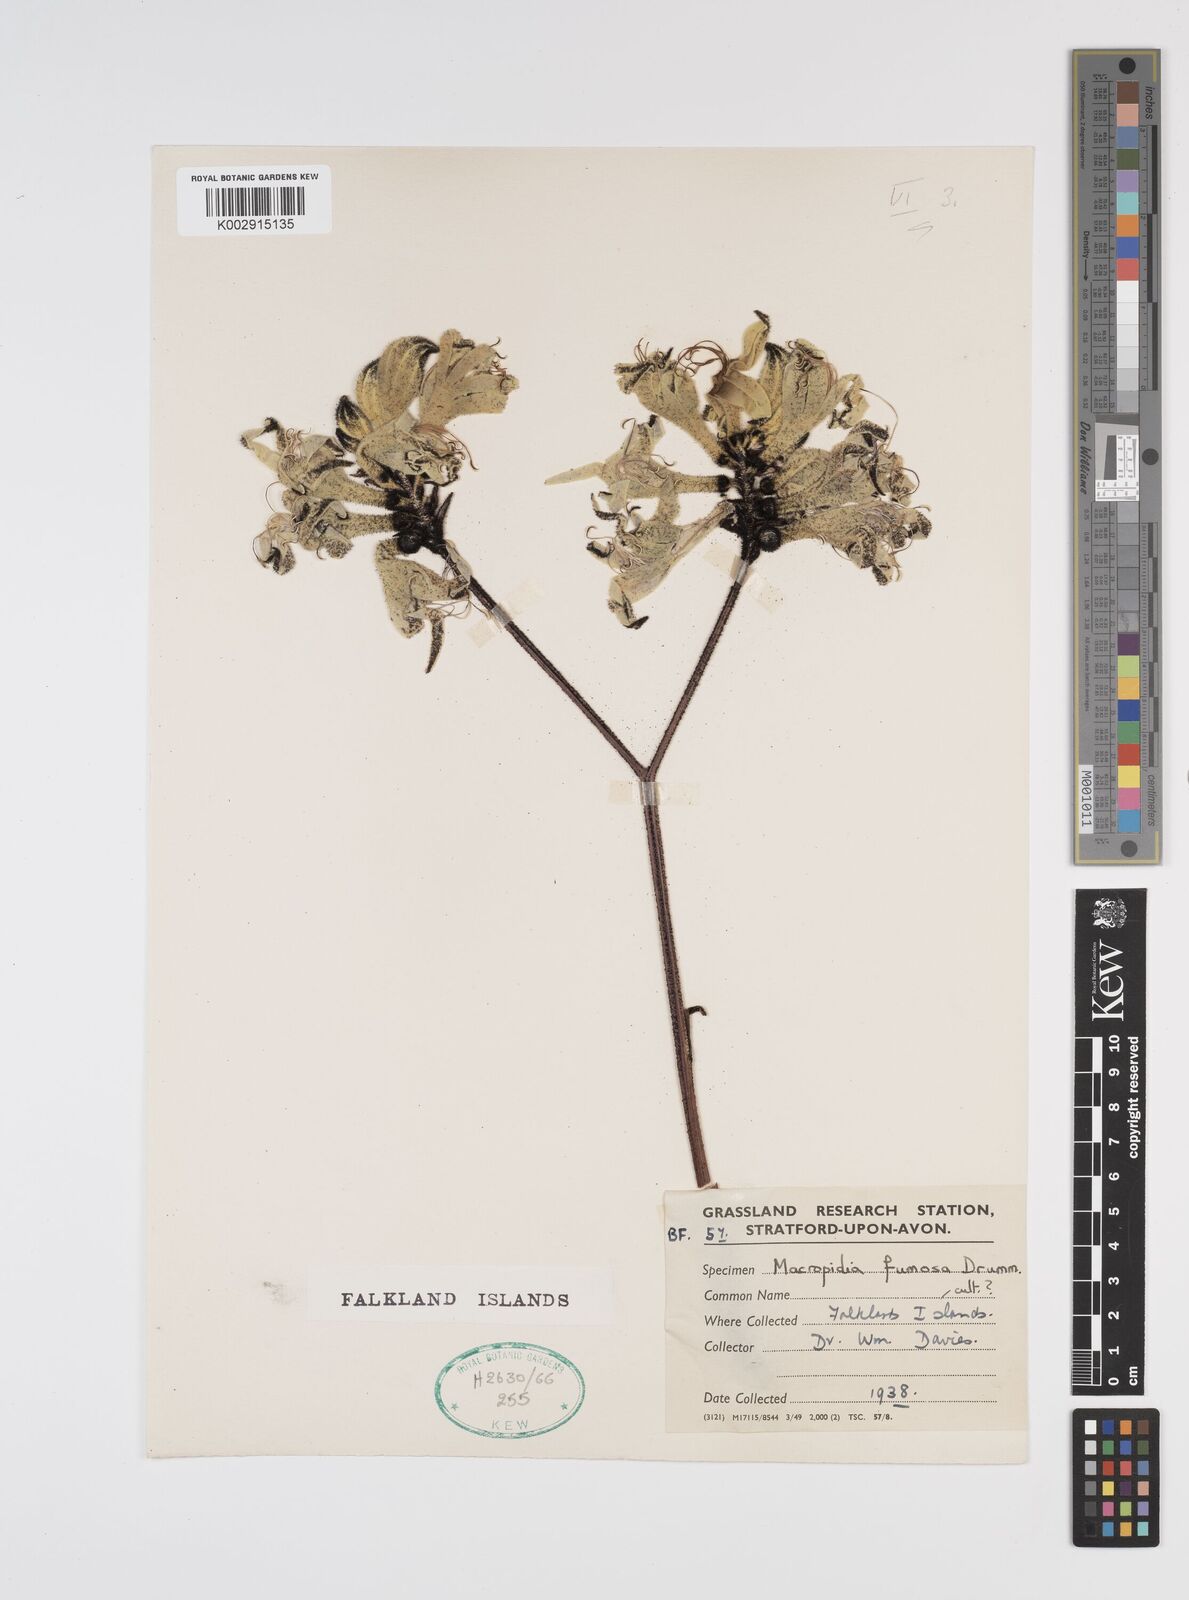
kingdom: Plantae
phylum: Tracheophyta
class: Liliopsida
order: Commelinales
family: Haemodoraceae
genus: Macropidia
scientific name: Macropidia fuliginosa
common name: Black kangaroo-paw
